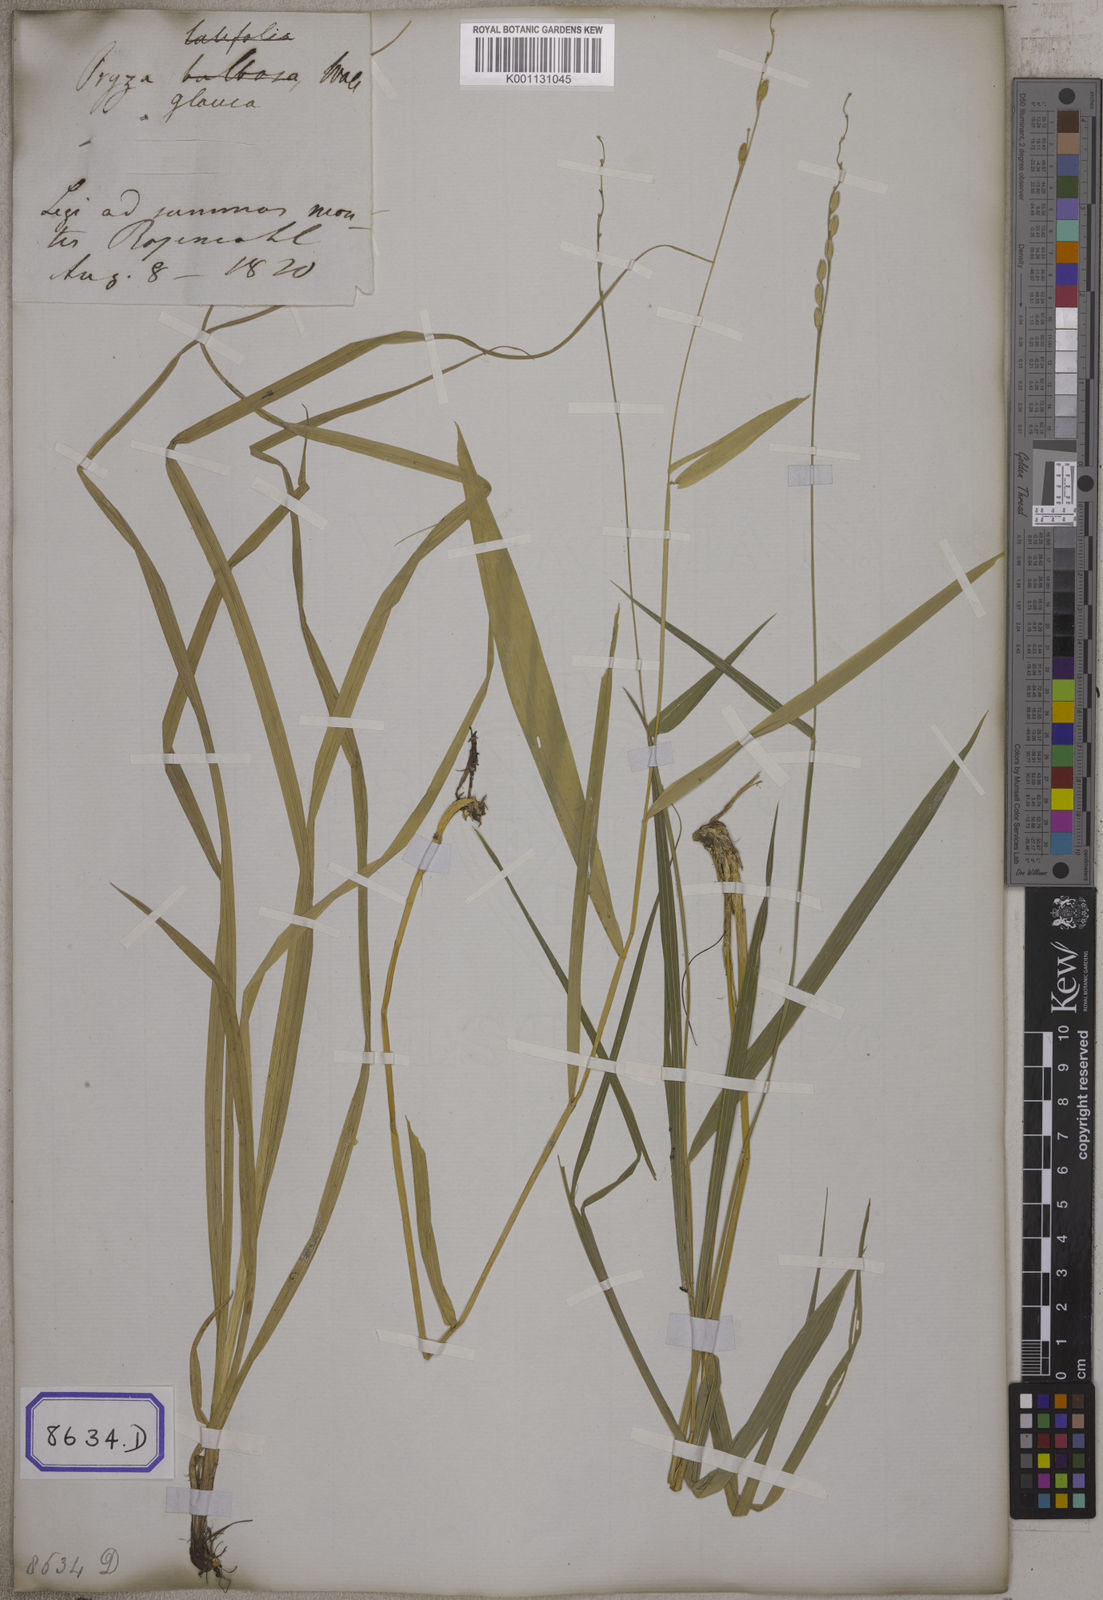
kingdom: Plantae
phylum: Tracheophyta
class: Liliopsida
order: Poales
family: Poaceae
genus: Oryza
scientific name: Oryza
